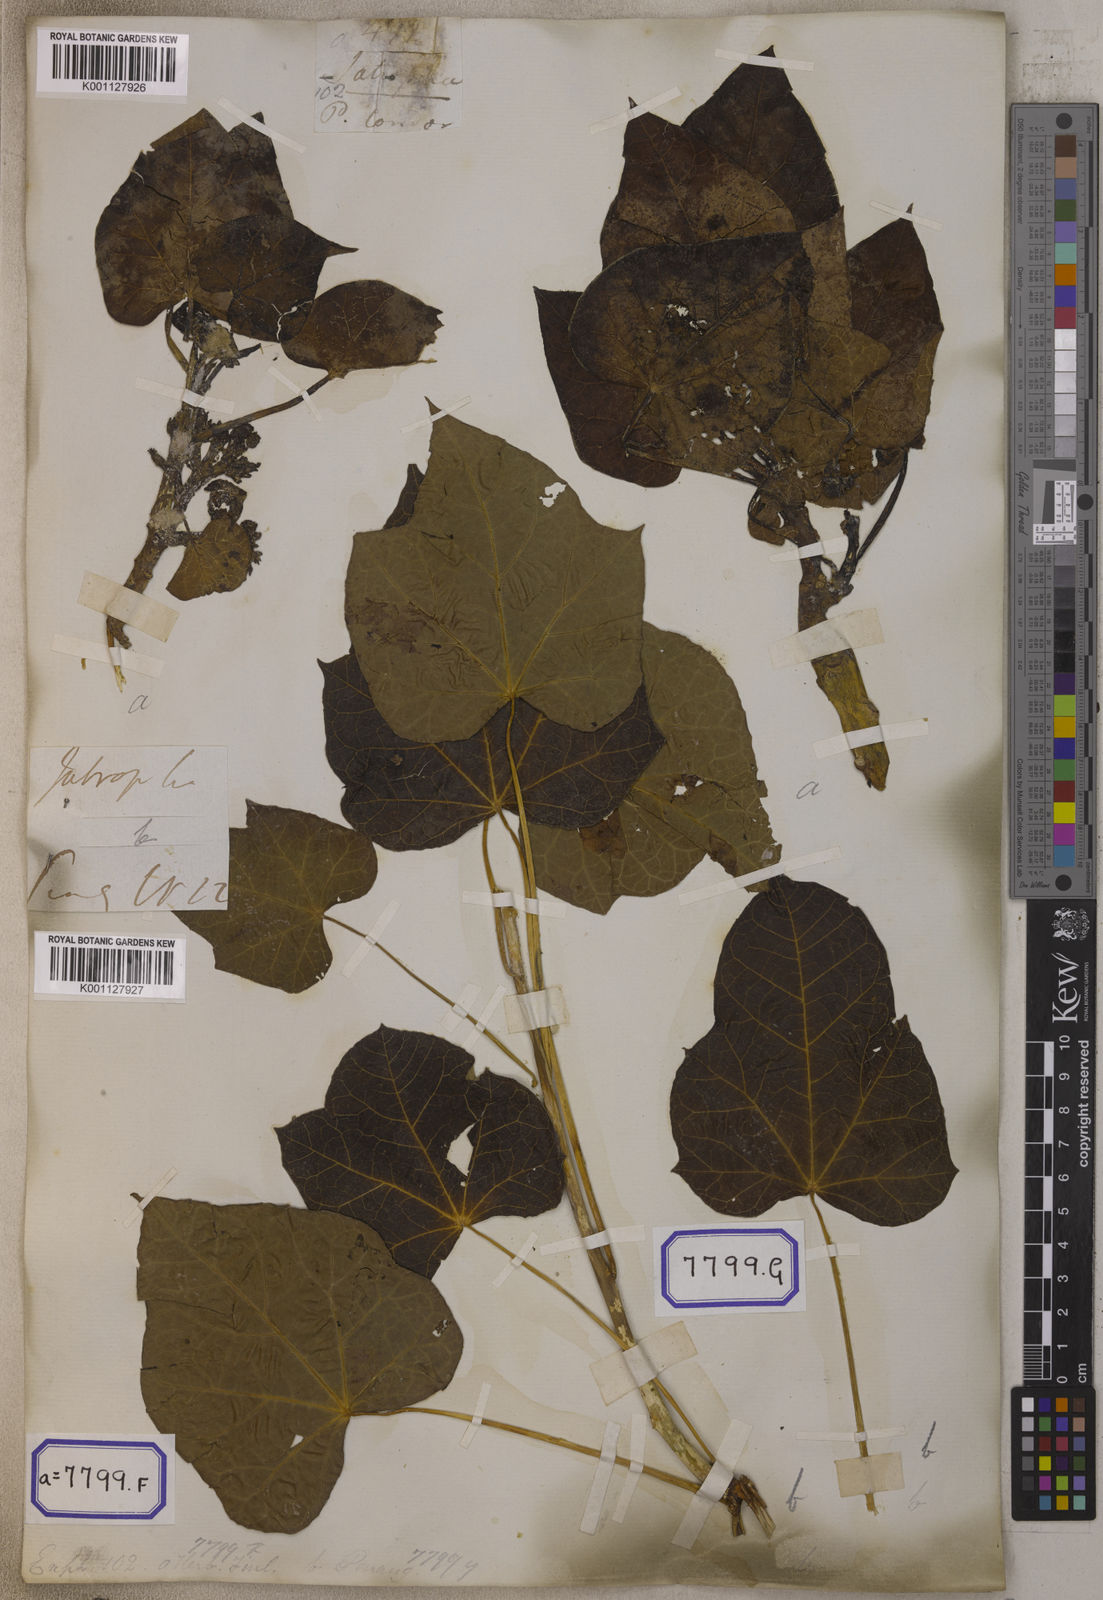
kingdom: Plantae
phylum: Tracheophyta
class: Magnoliopsida
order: Malpighiales
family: Euphorbiaceae
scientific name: Euphorbiaceae
